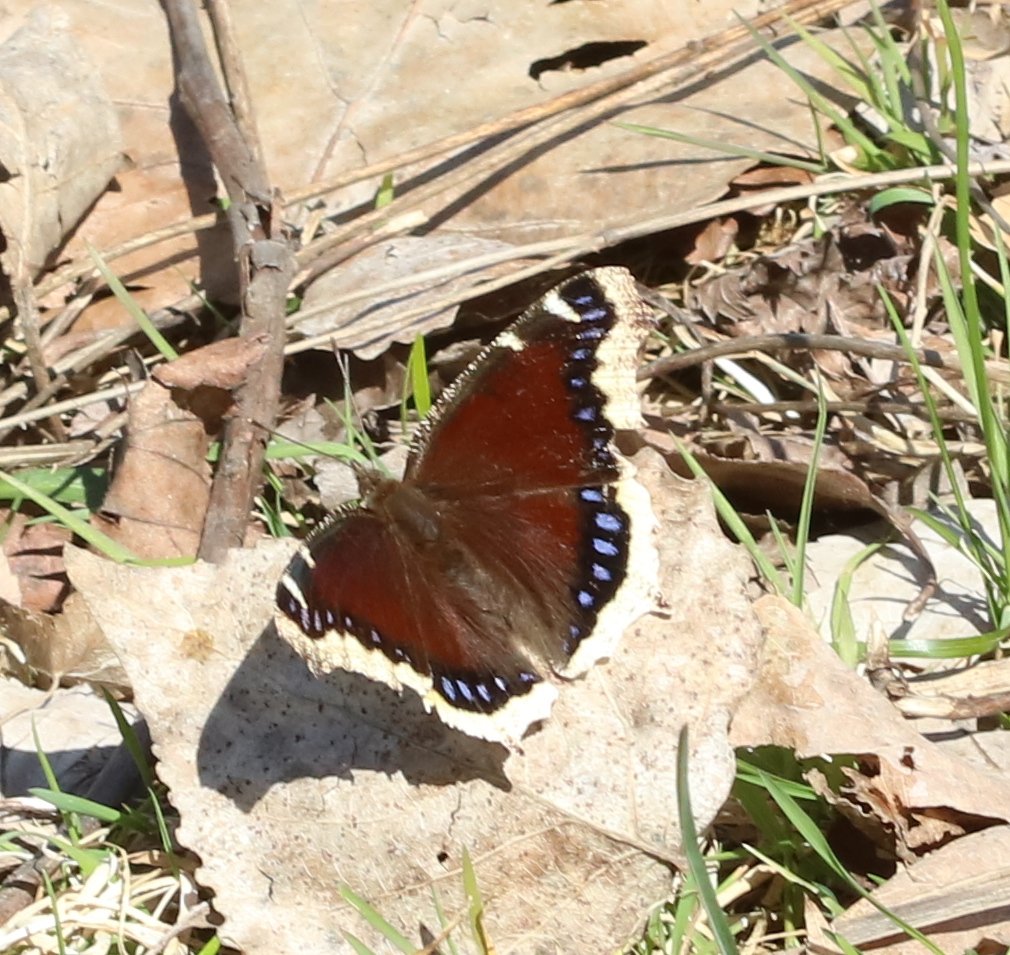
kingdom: Animalia
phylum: Arthropoda
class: Insecta
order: Lepidoptera
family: Nymphalidae
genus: Nymphalis
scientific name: Nymphalis antiopa
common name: Mourning Cloak
